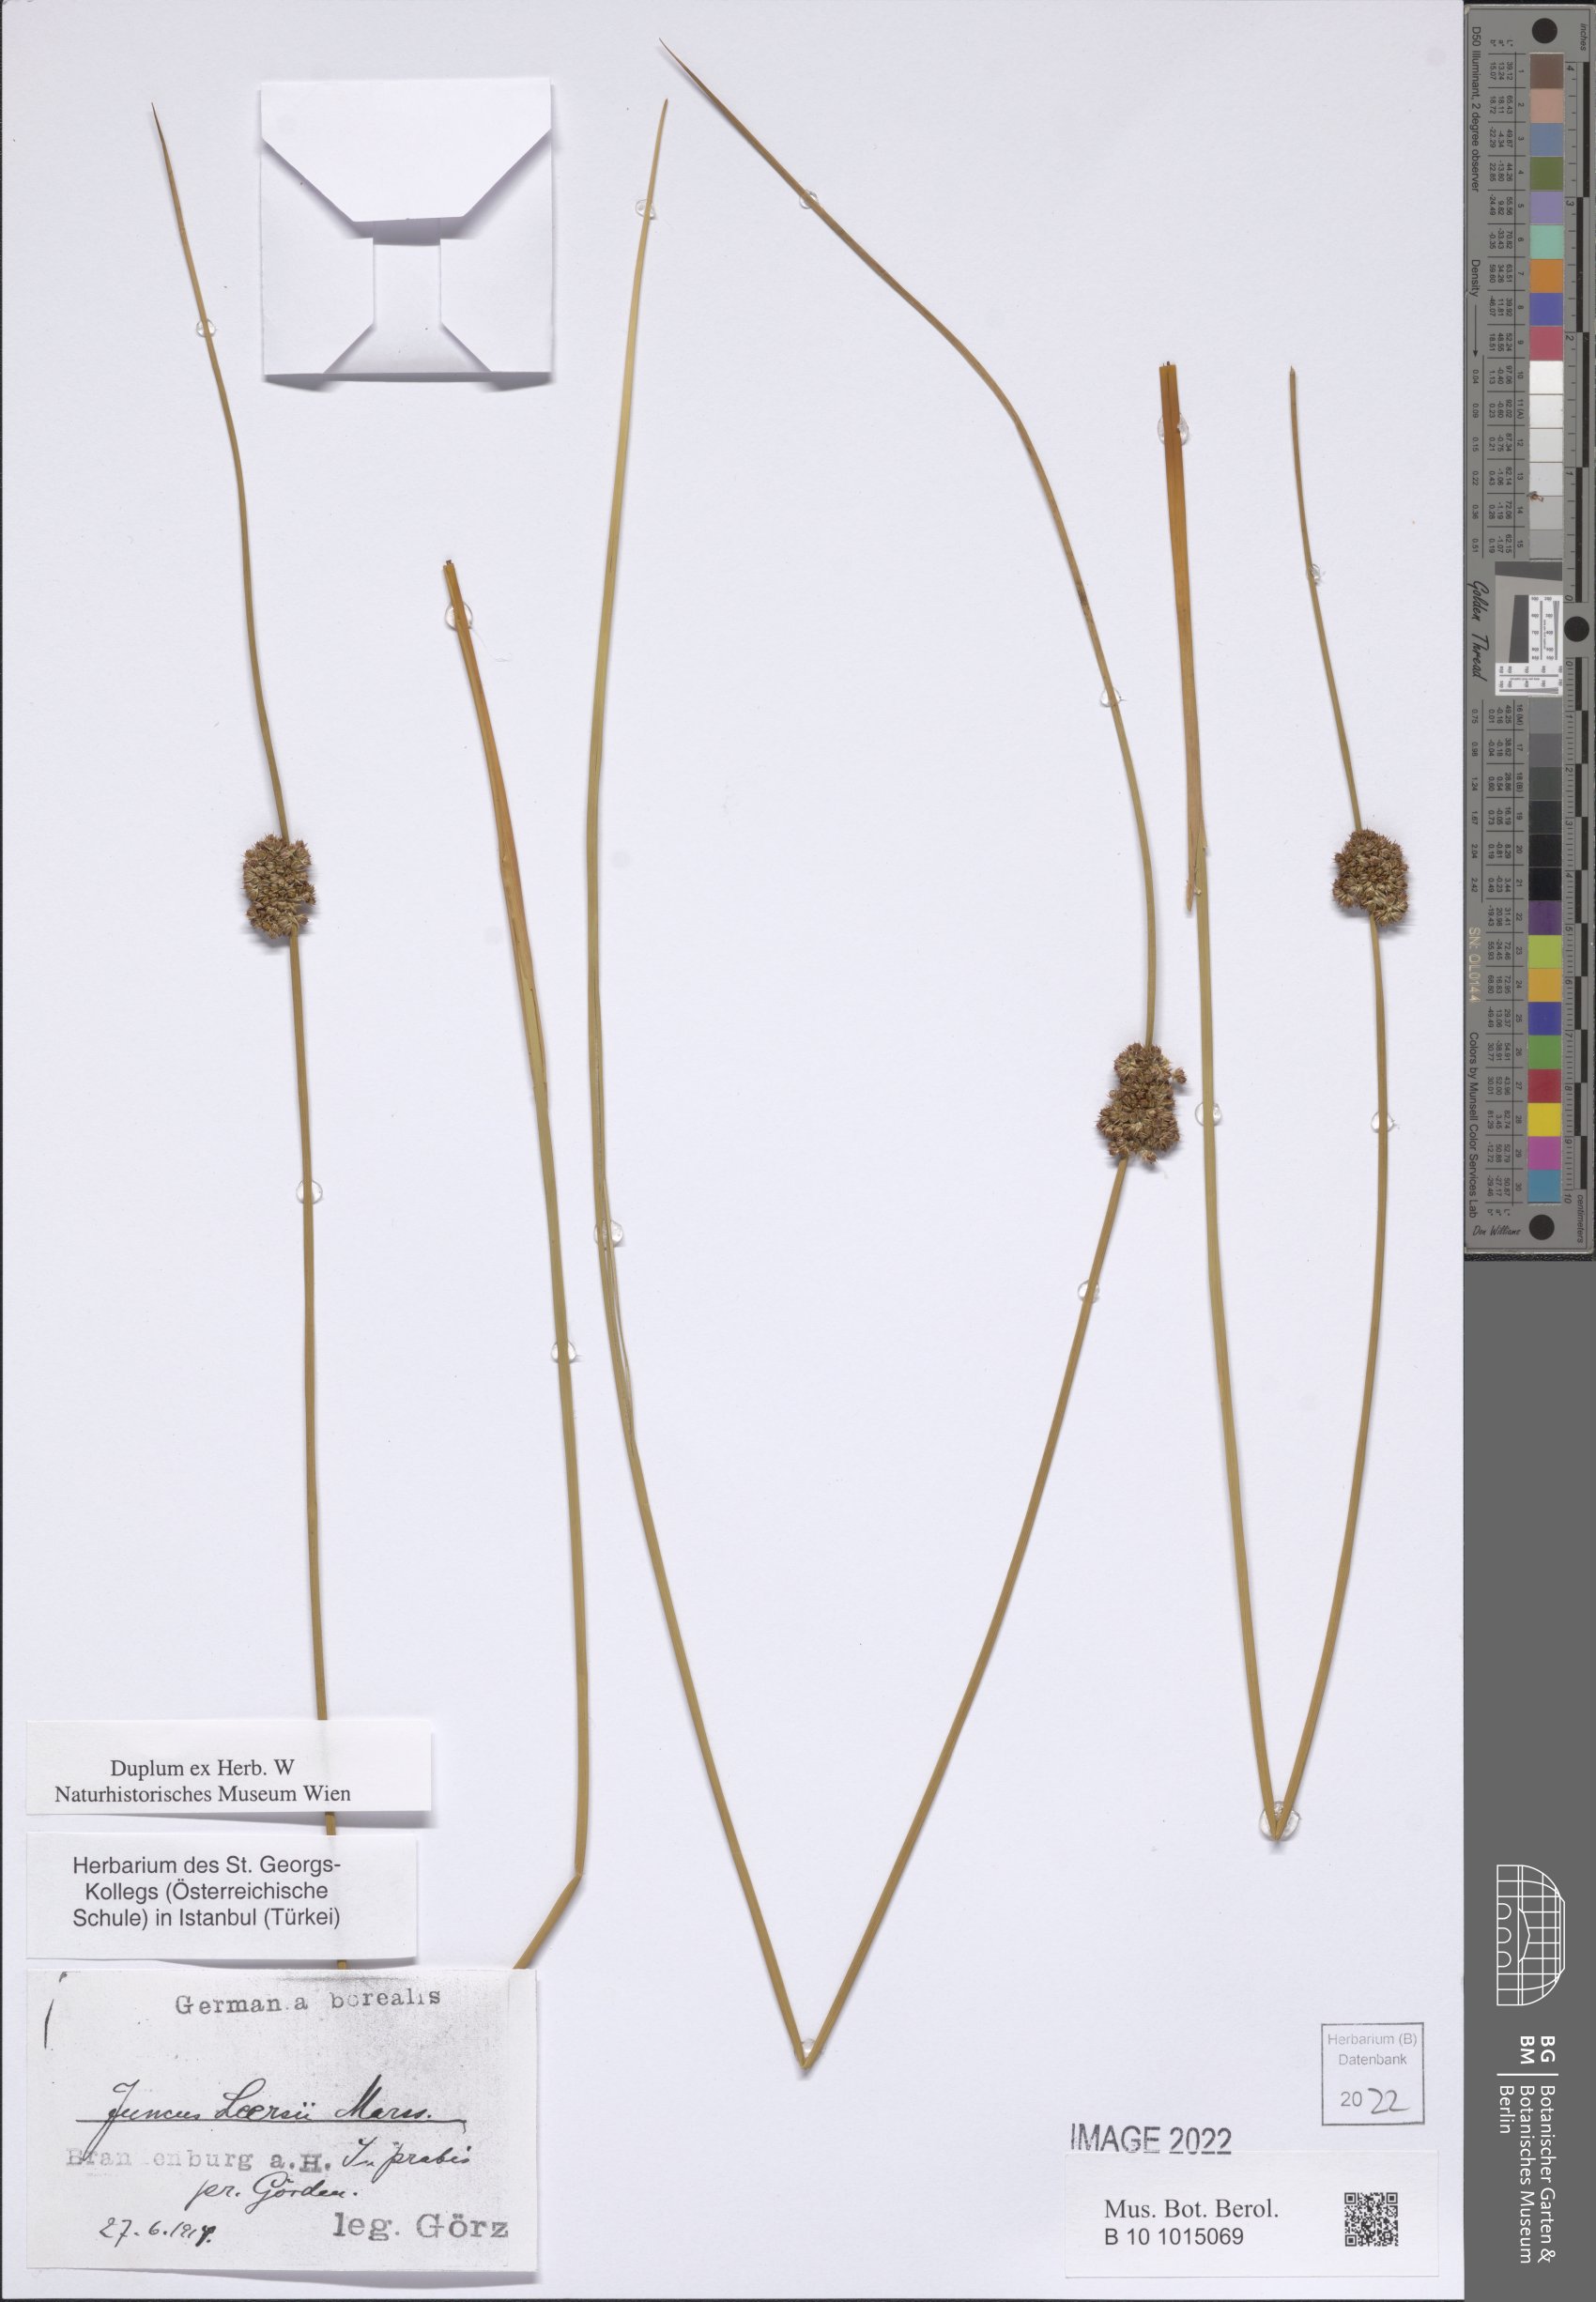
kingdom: Plantae
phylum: Tracheophyta
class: Liliopsida
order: Poales
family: Juncaceae
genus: Juncus
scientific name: Juncus conglomeratus
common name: Compact rush
